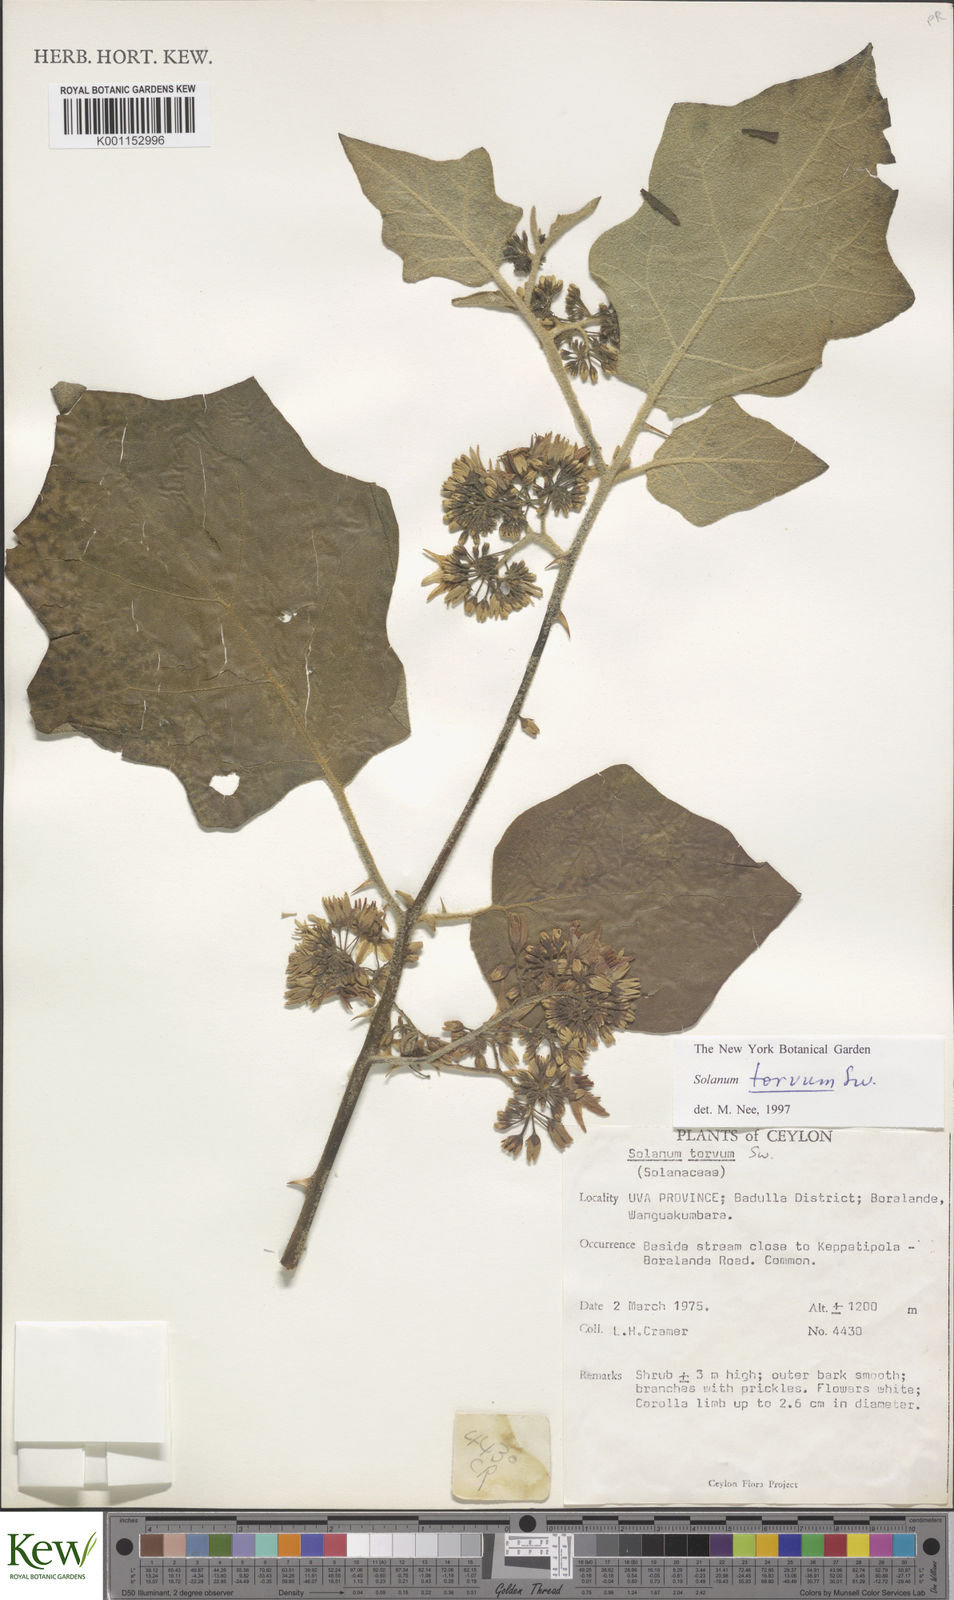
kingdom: Plantae
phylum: Tracheophyta
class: Magnoliopsida
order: Solanales
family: Solanaceae
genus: Solanum
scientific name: Solanum torvum
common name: Turkey berry
